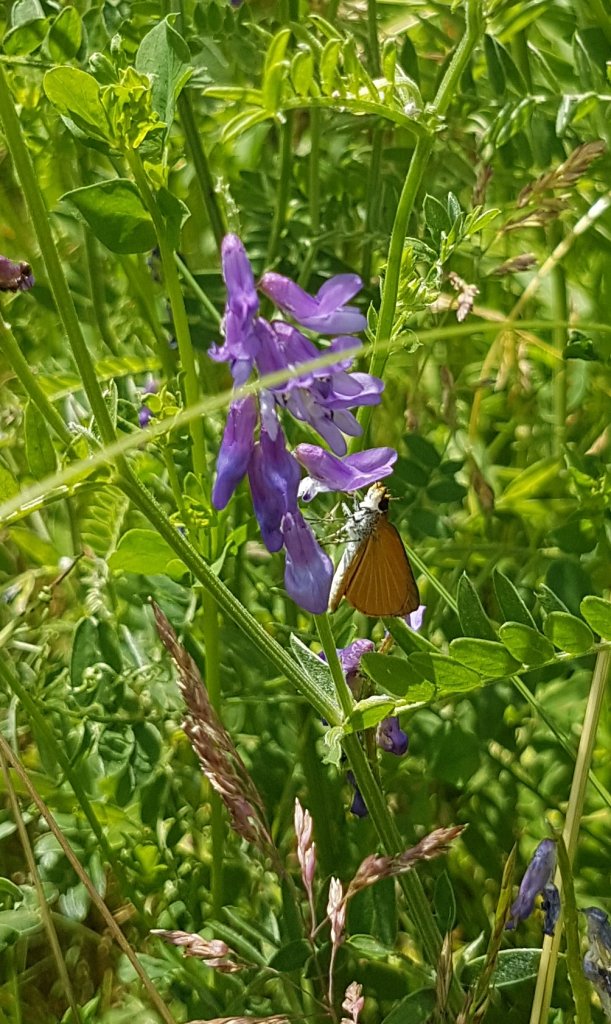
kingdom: Animalia
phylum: Arthropoda
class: Insecta
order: Lepidoptera
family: Hesperiidae
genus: Ancyloxypha
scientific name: Ancyloxypha numitor
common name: Least Skipper
